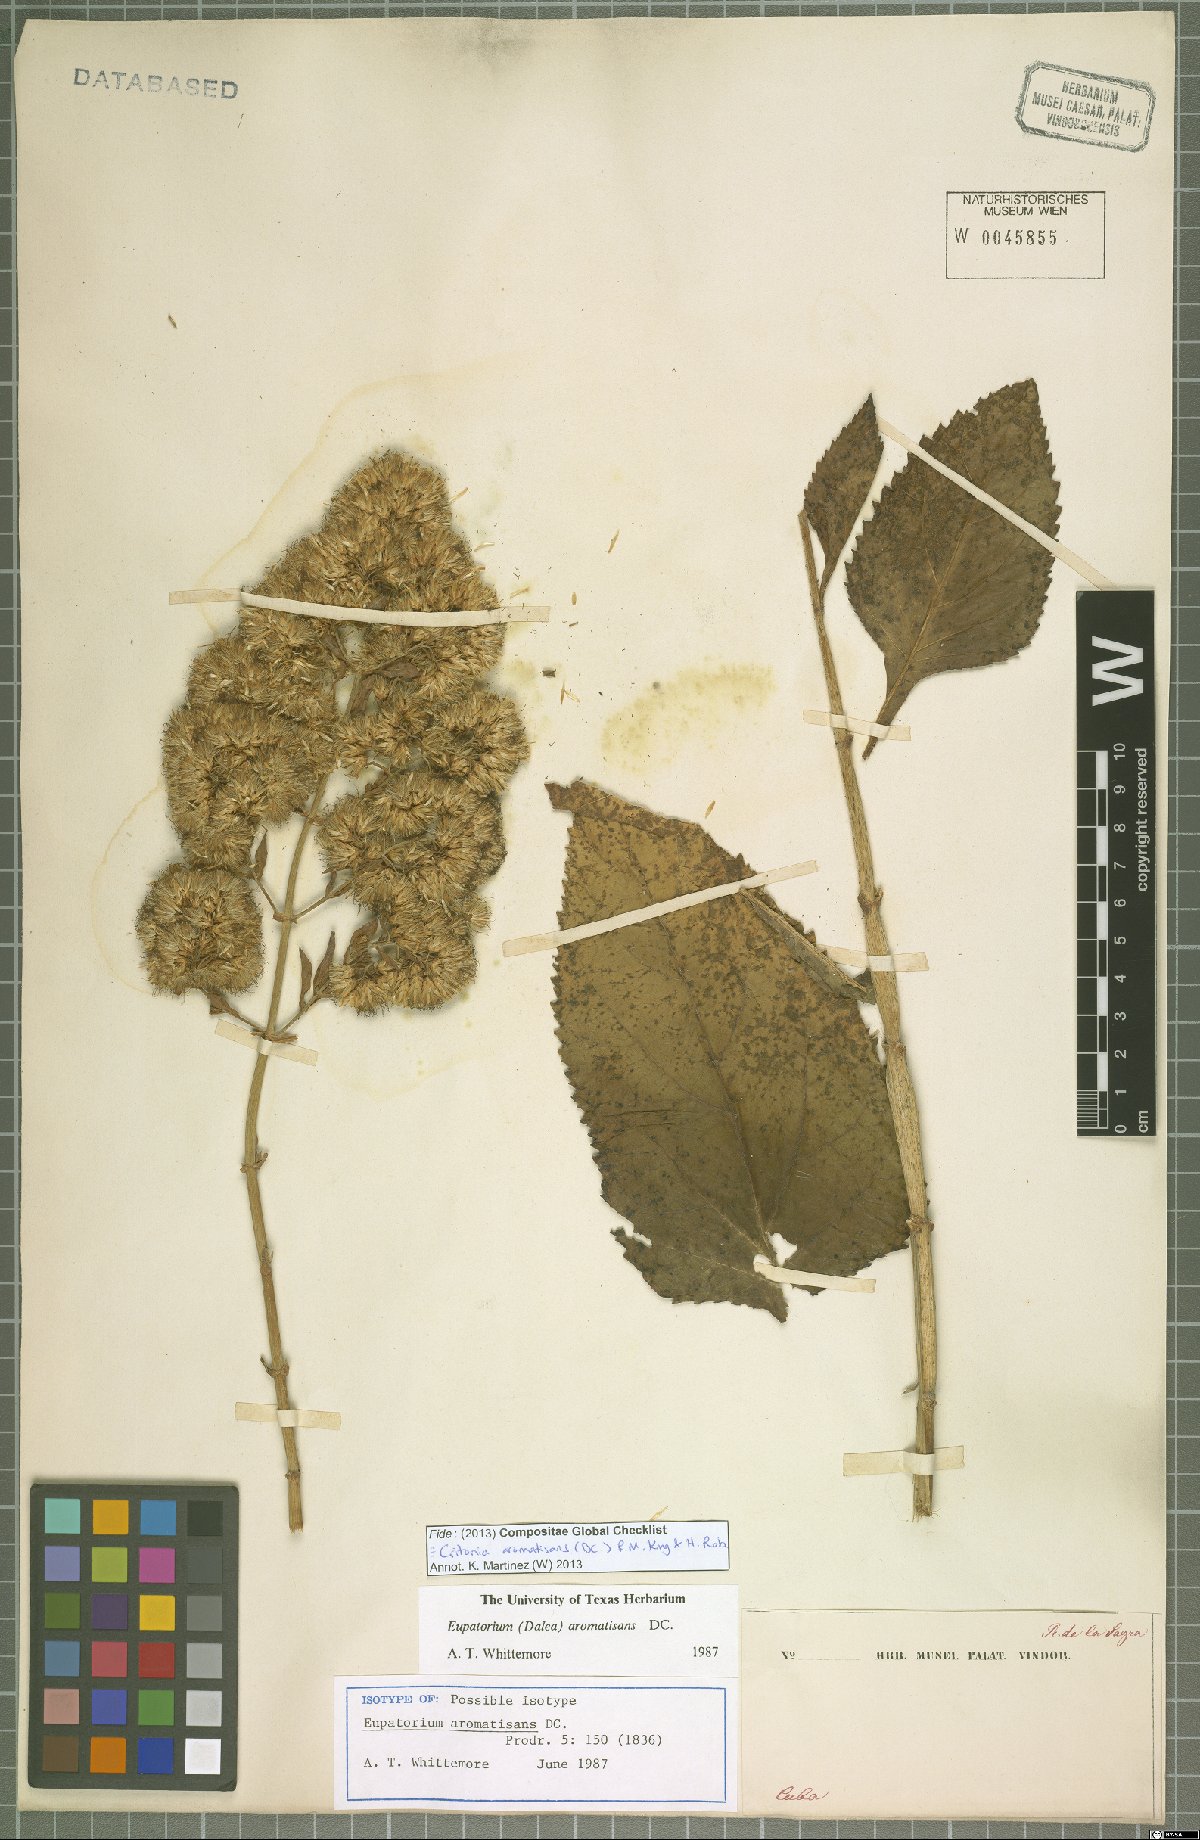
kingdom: Plantae
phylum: Tracheophyta
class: Magnoliopsida
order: Asterales
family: Asteraceae
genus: Critonia
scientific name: Critonia aromatisans
